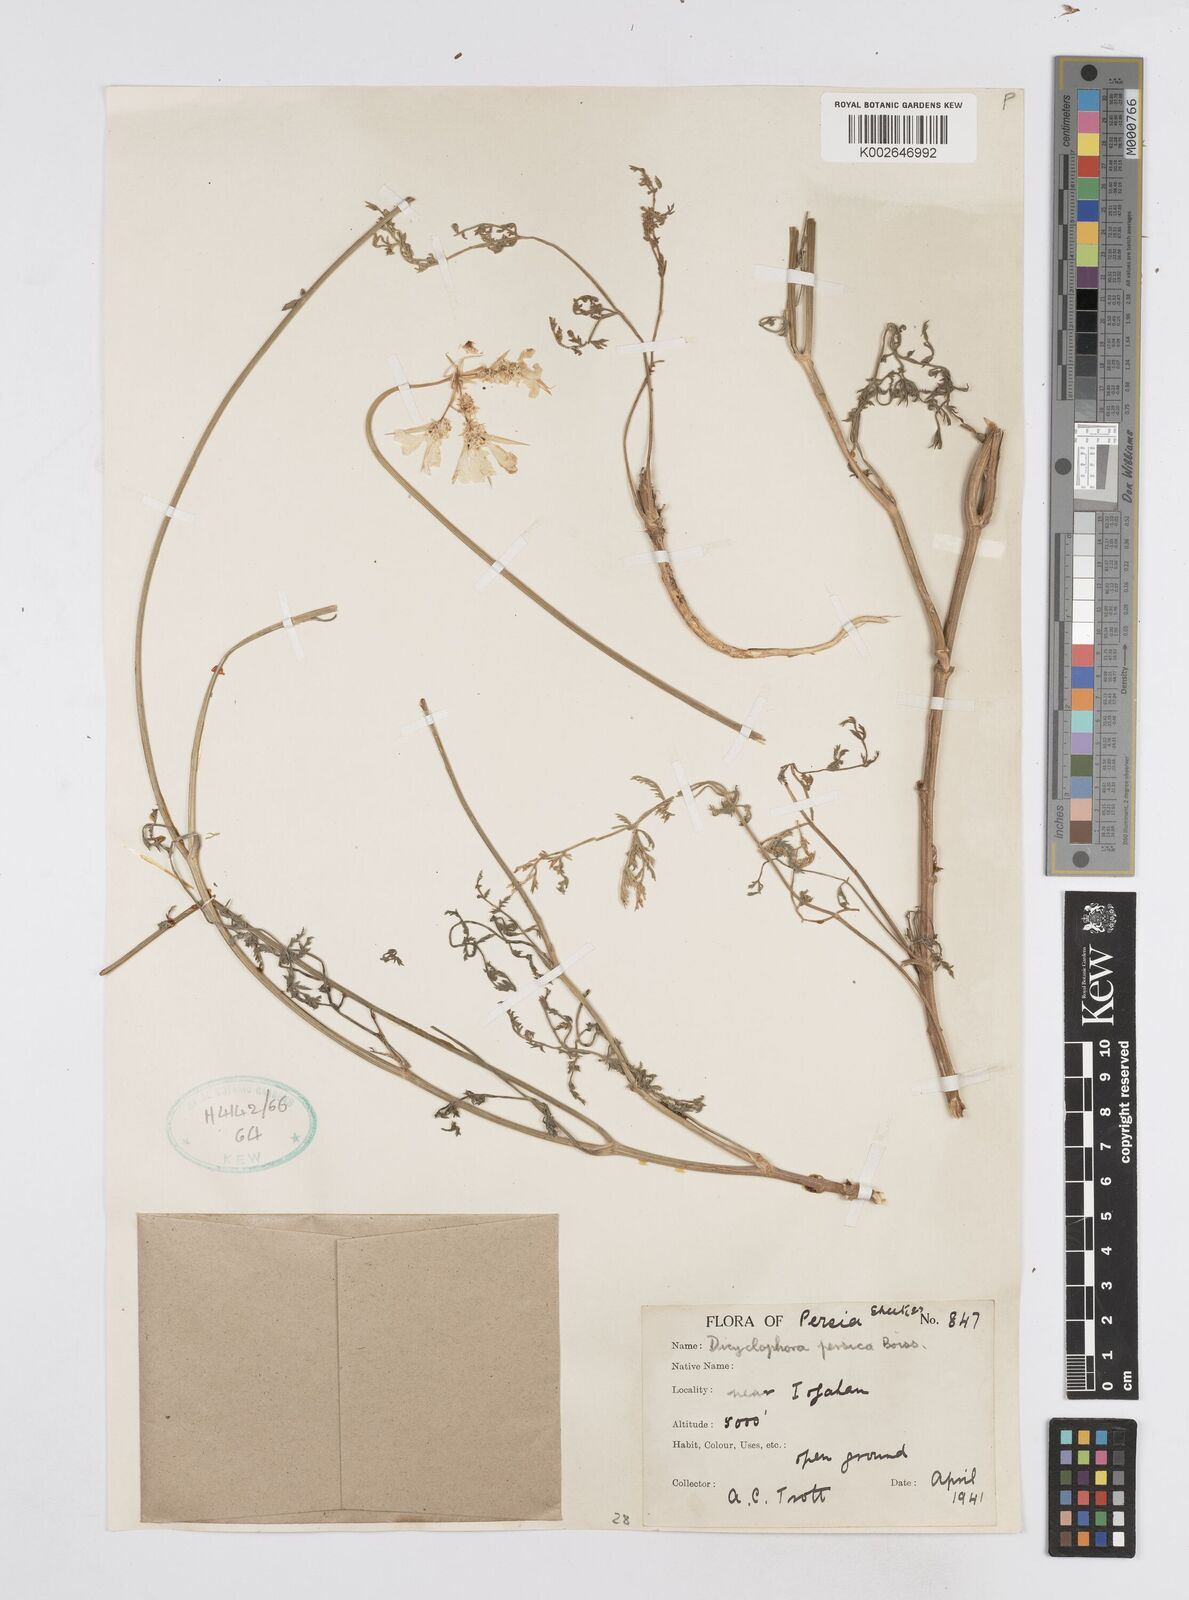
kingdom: Plantae
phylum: Tracheophyta
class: Magnoliopsida
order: Apiales
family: Apiaceae
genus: Dicyclophora
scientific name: Dicyclophora persica
